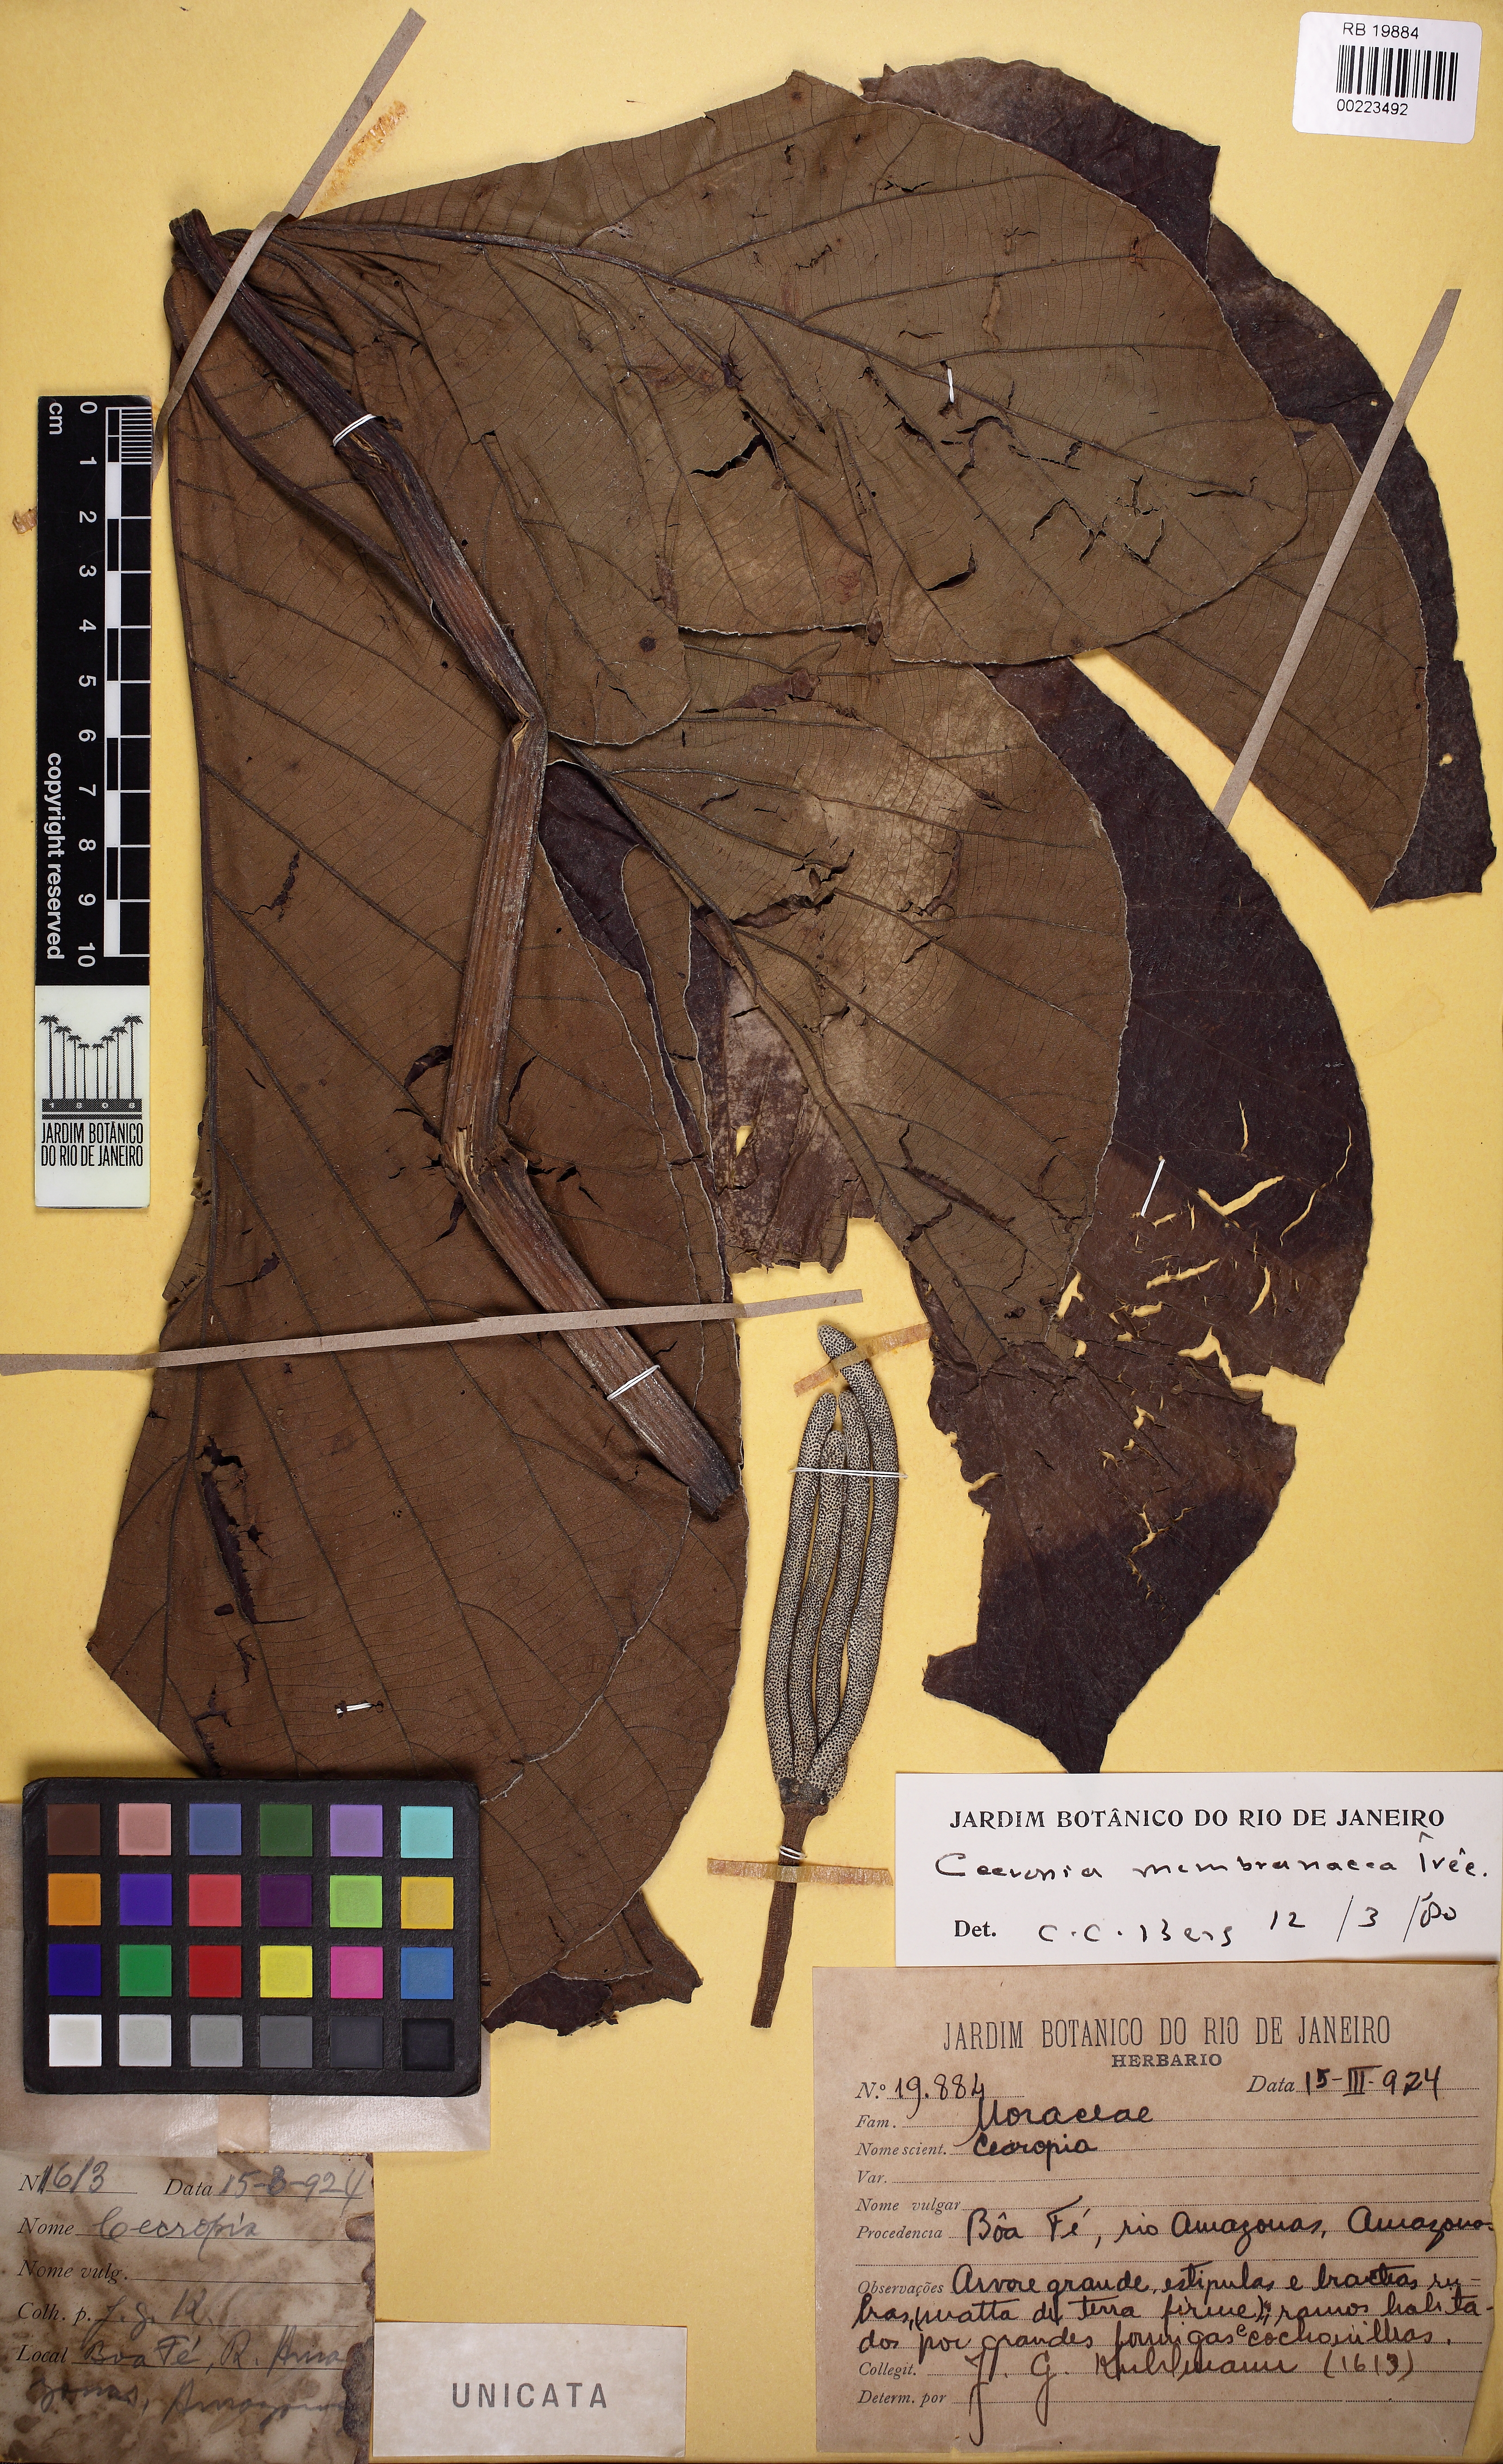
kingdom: Plantae
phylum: Tracheophyta
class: Magnoliopsida
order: Rosales
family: Urticaceae
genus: Cecropia
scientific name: Cecropia membranacea
